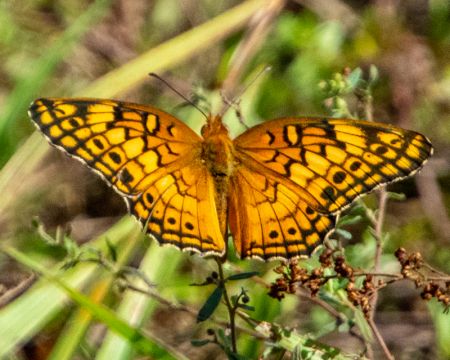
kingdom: Animalia
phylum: Arthropoda
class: Insecta
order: Lepidoptera
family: Nymphalidae
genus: Euptoieta
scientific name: Euptoieta claudia
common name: Variegated Fritillary
